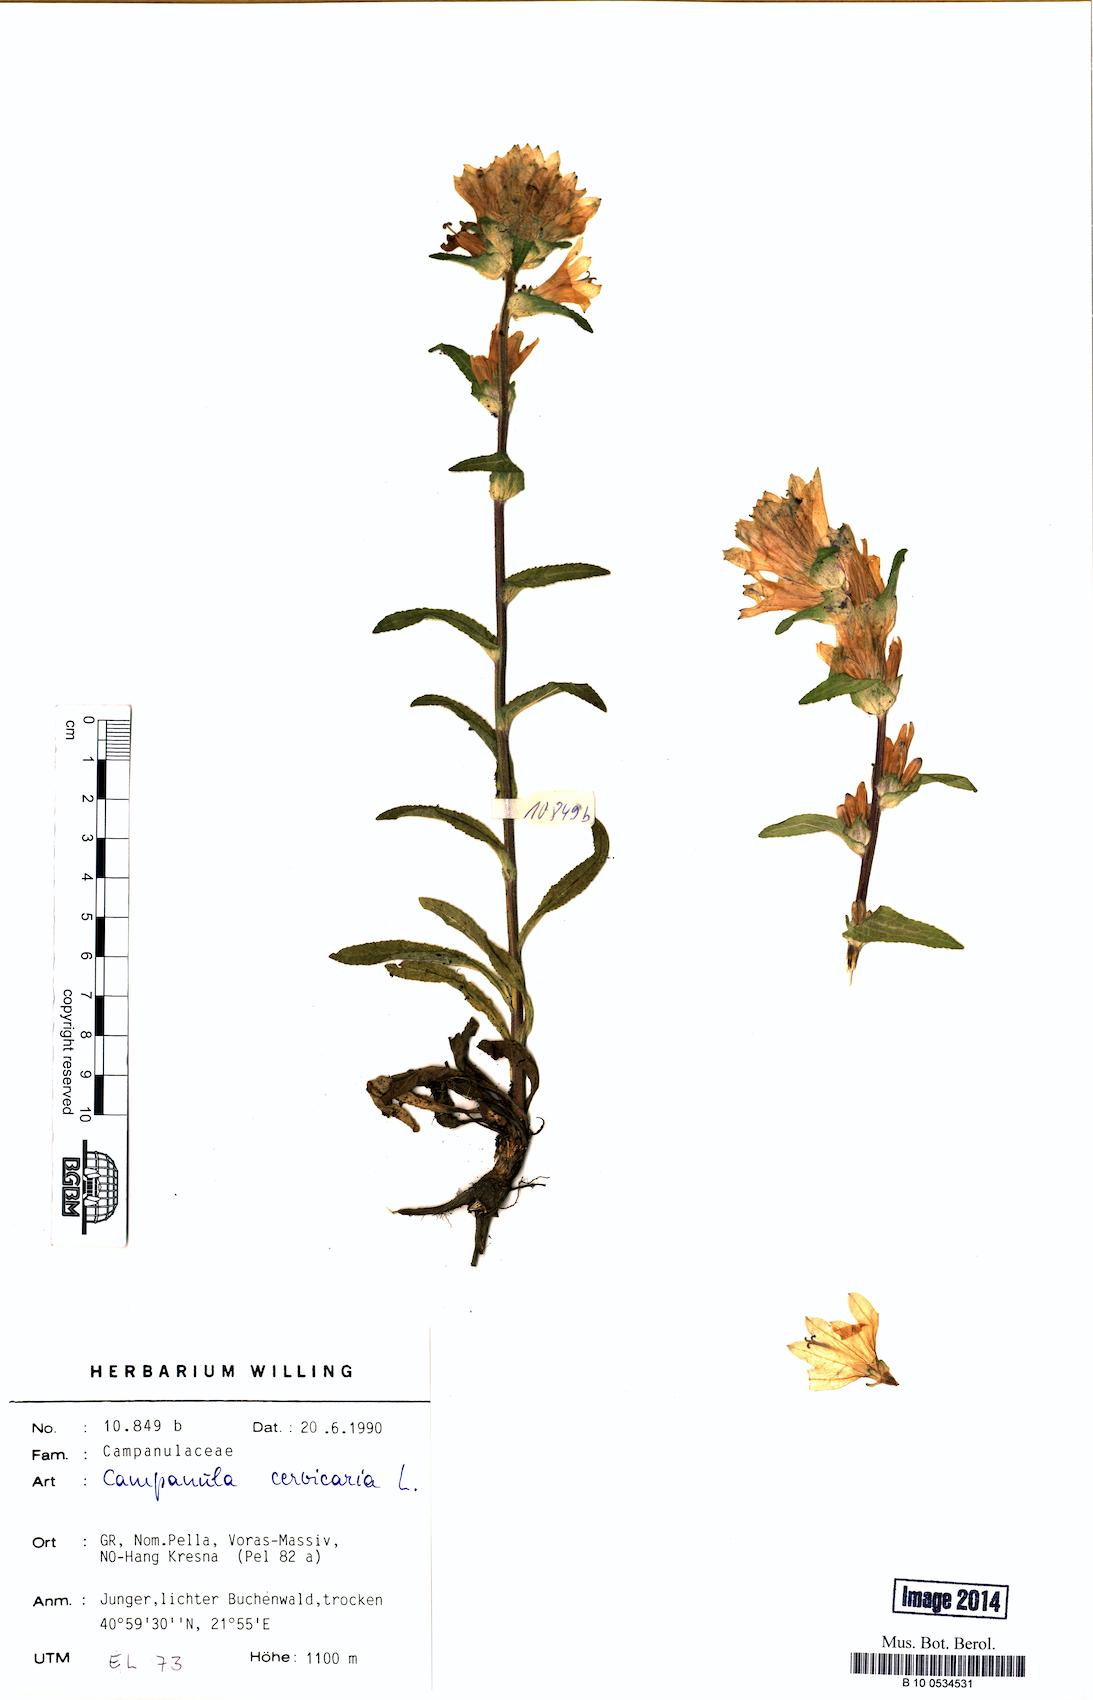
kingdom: Plantae
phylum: Tracheophyta
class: Magnoliopsida
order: Asterales
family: Campanulaceae
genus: Campanula
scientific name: Campanula cervicaria
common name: Bristly bellflower
